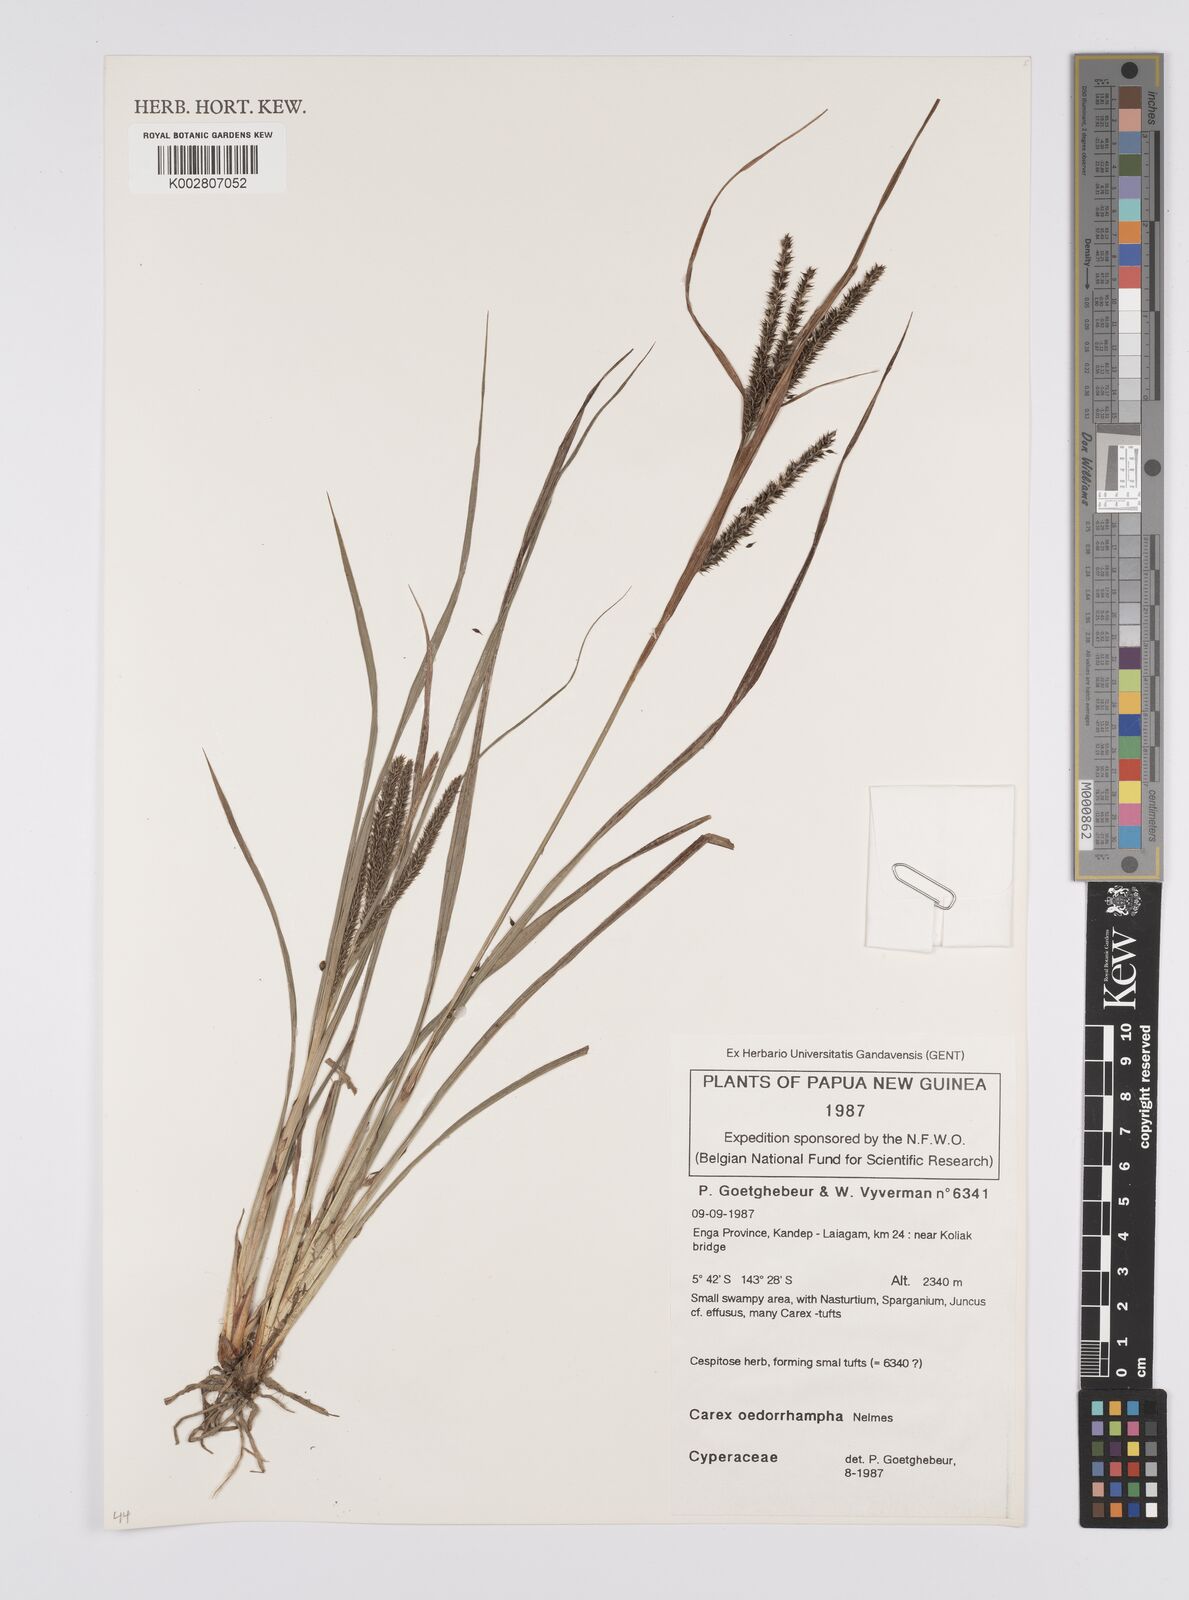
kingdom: Plantae
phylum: Tracheophyta
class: Liliopsida
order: Poales
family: Cyperaceae
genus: Carex
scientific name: Carex tumida
